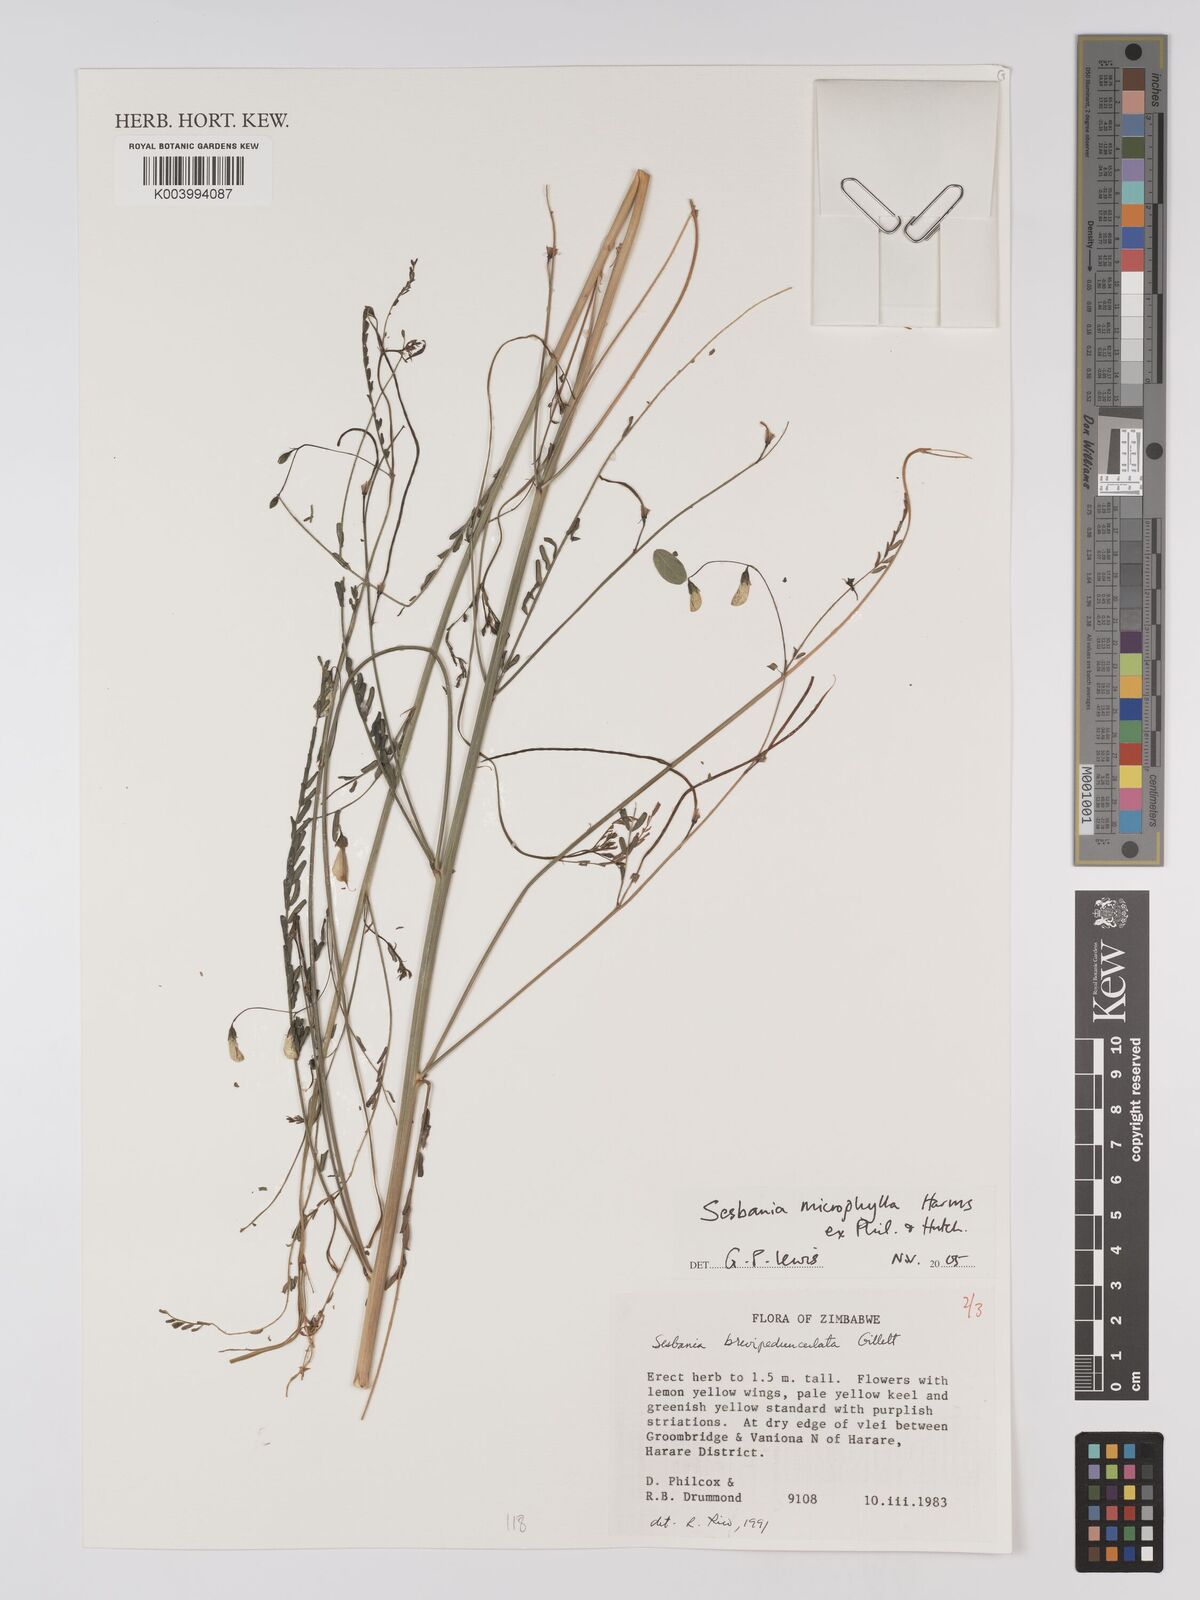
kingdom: Plantae
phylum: Tracheophyta
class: Magnoliopsida
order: Fabales
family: Fabaceae
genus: Sesbania
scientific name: Sesbania microphylla
